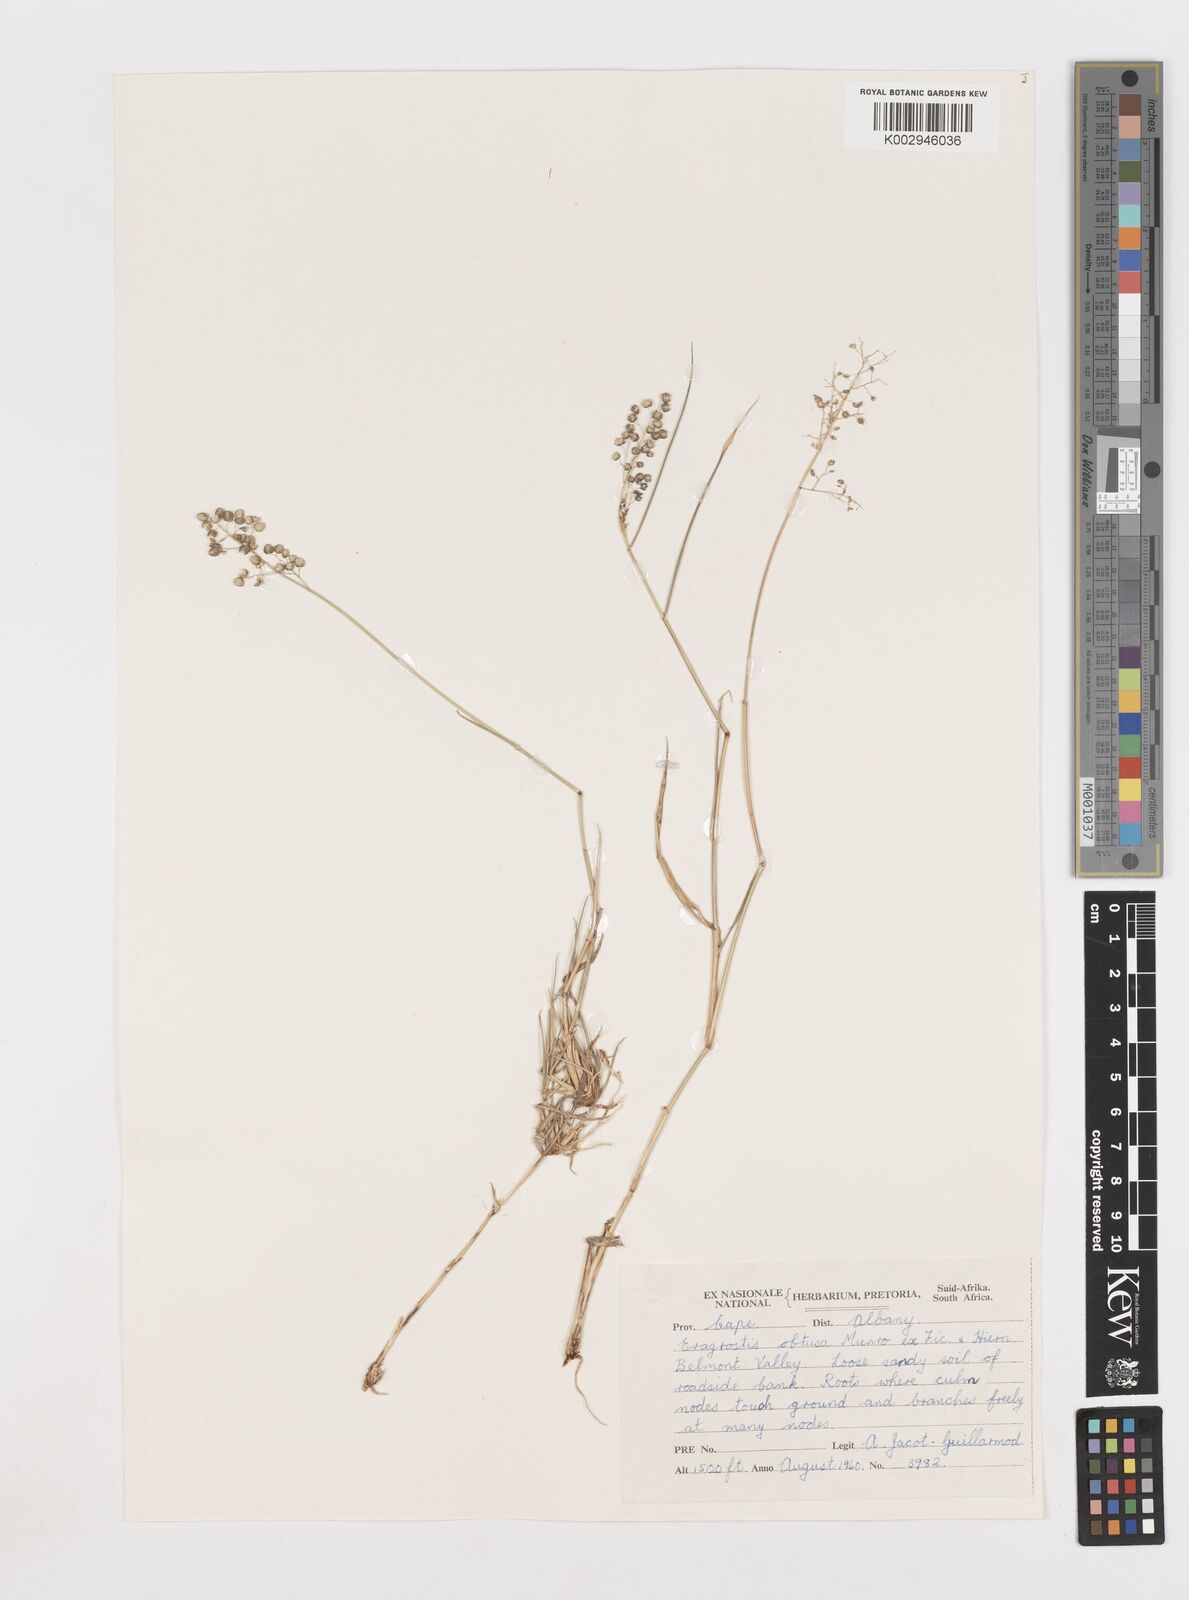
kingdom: Plantae
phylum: Tracheophyta
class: Liliopsida
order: Poales
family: Poaceae
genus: Eragrostis
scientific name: Eragrostis obtusa
